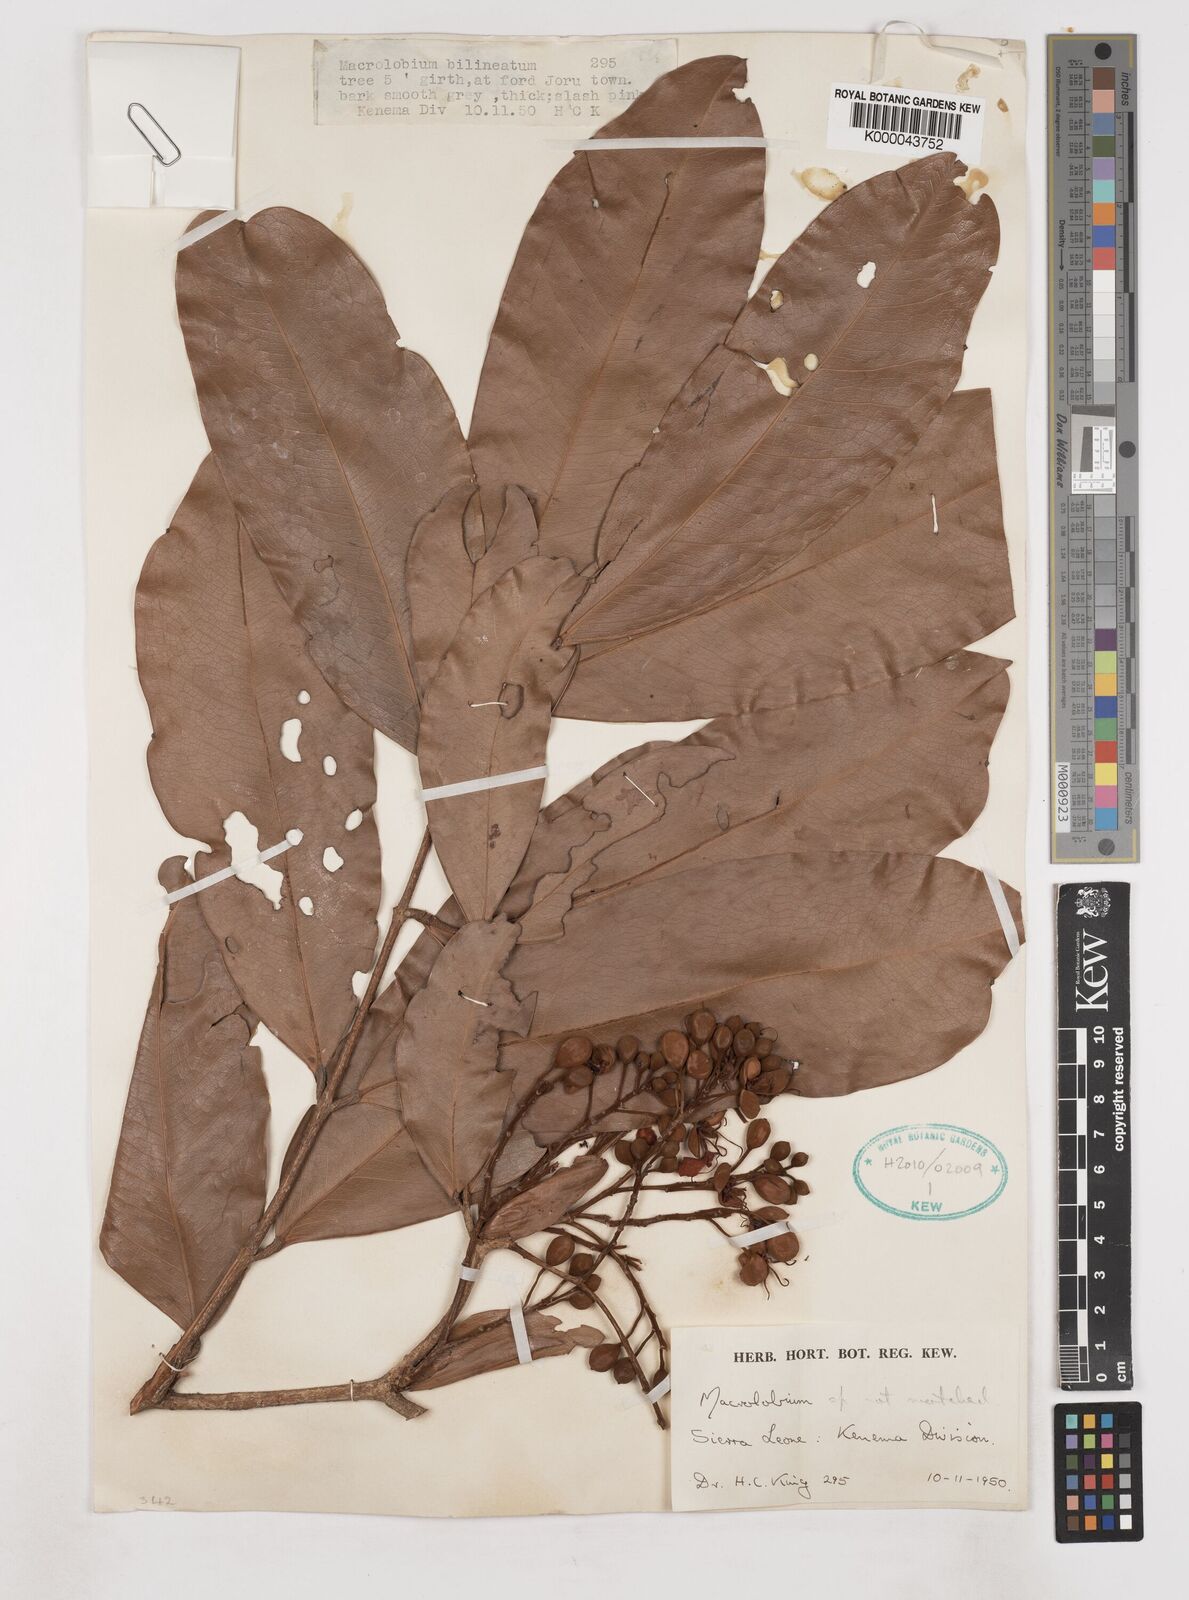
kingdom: Plantae
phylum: Tracheophyta
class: Magnoliopsida
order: Fabales
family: Fabaceae
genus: Gilbertiodendron
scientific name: Gilbertiodendron
